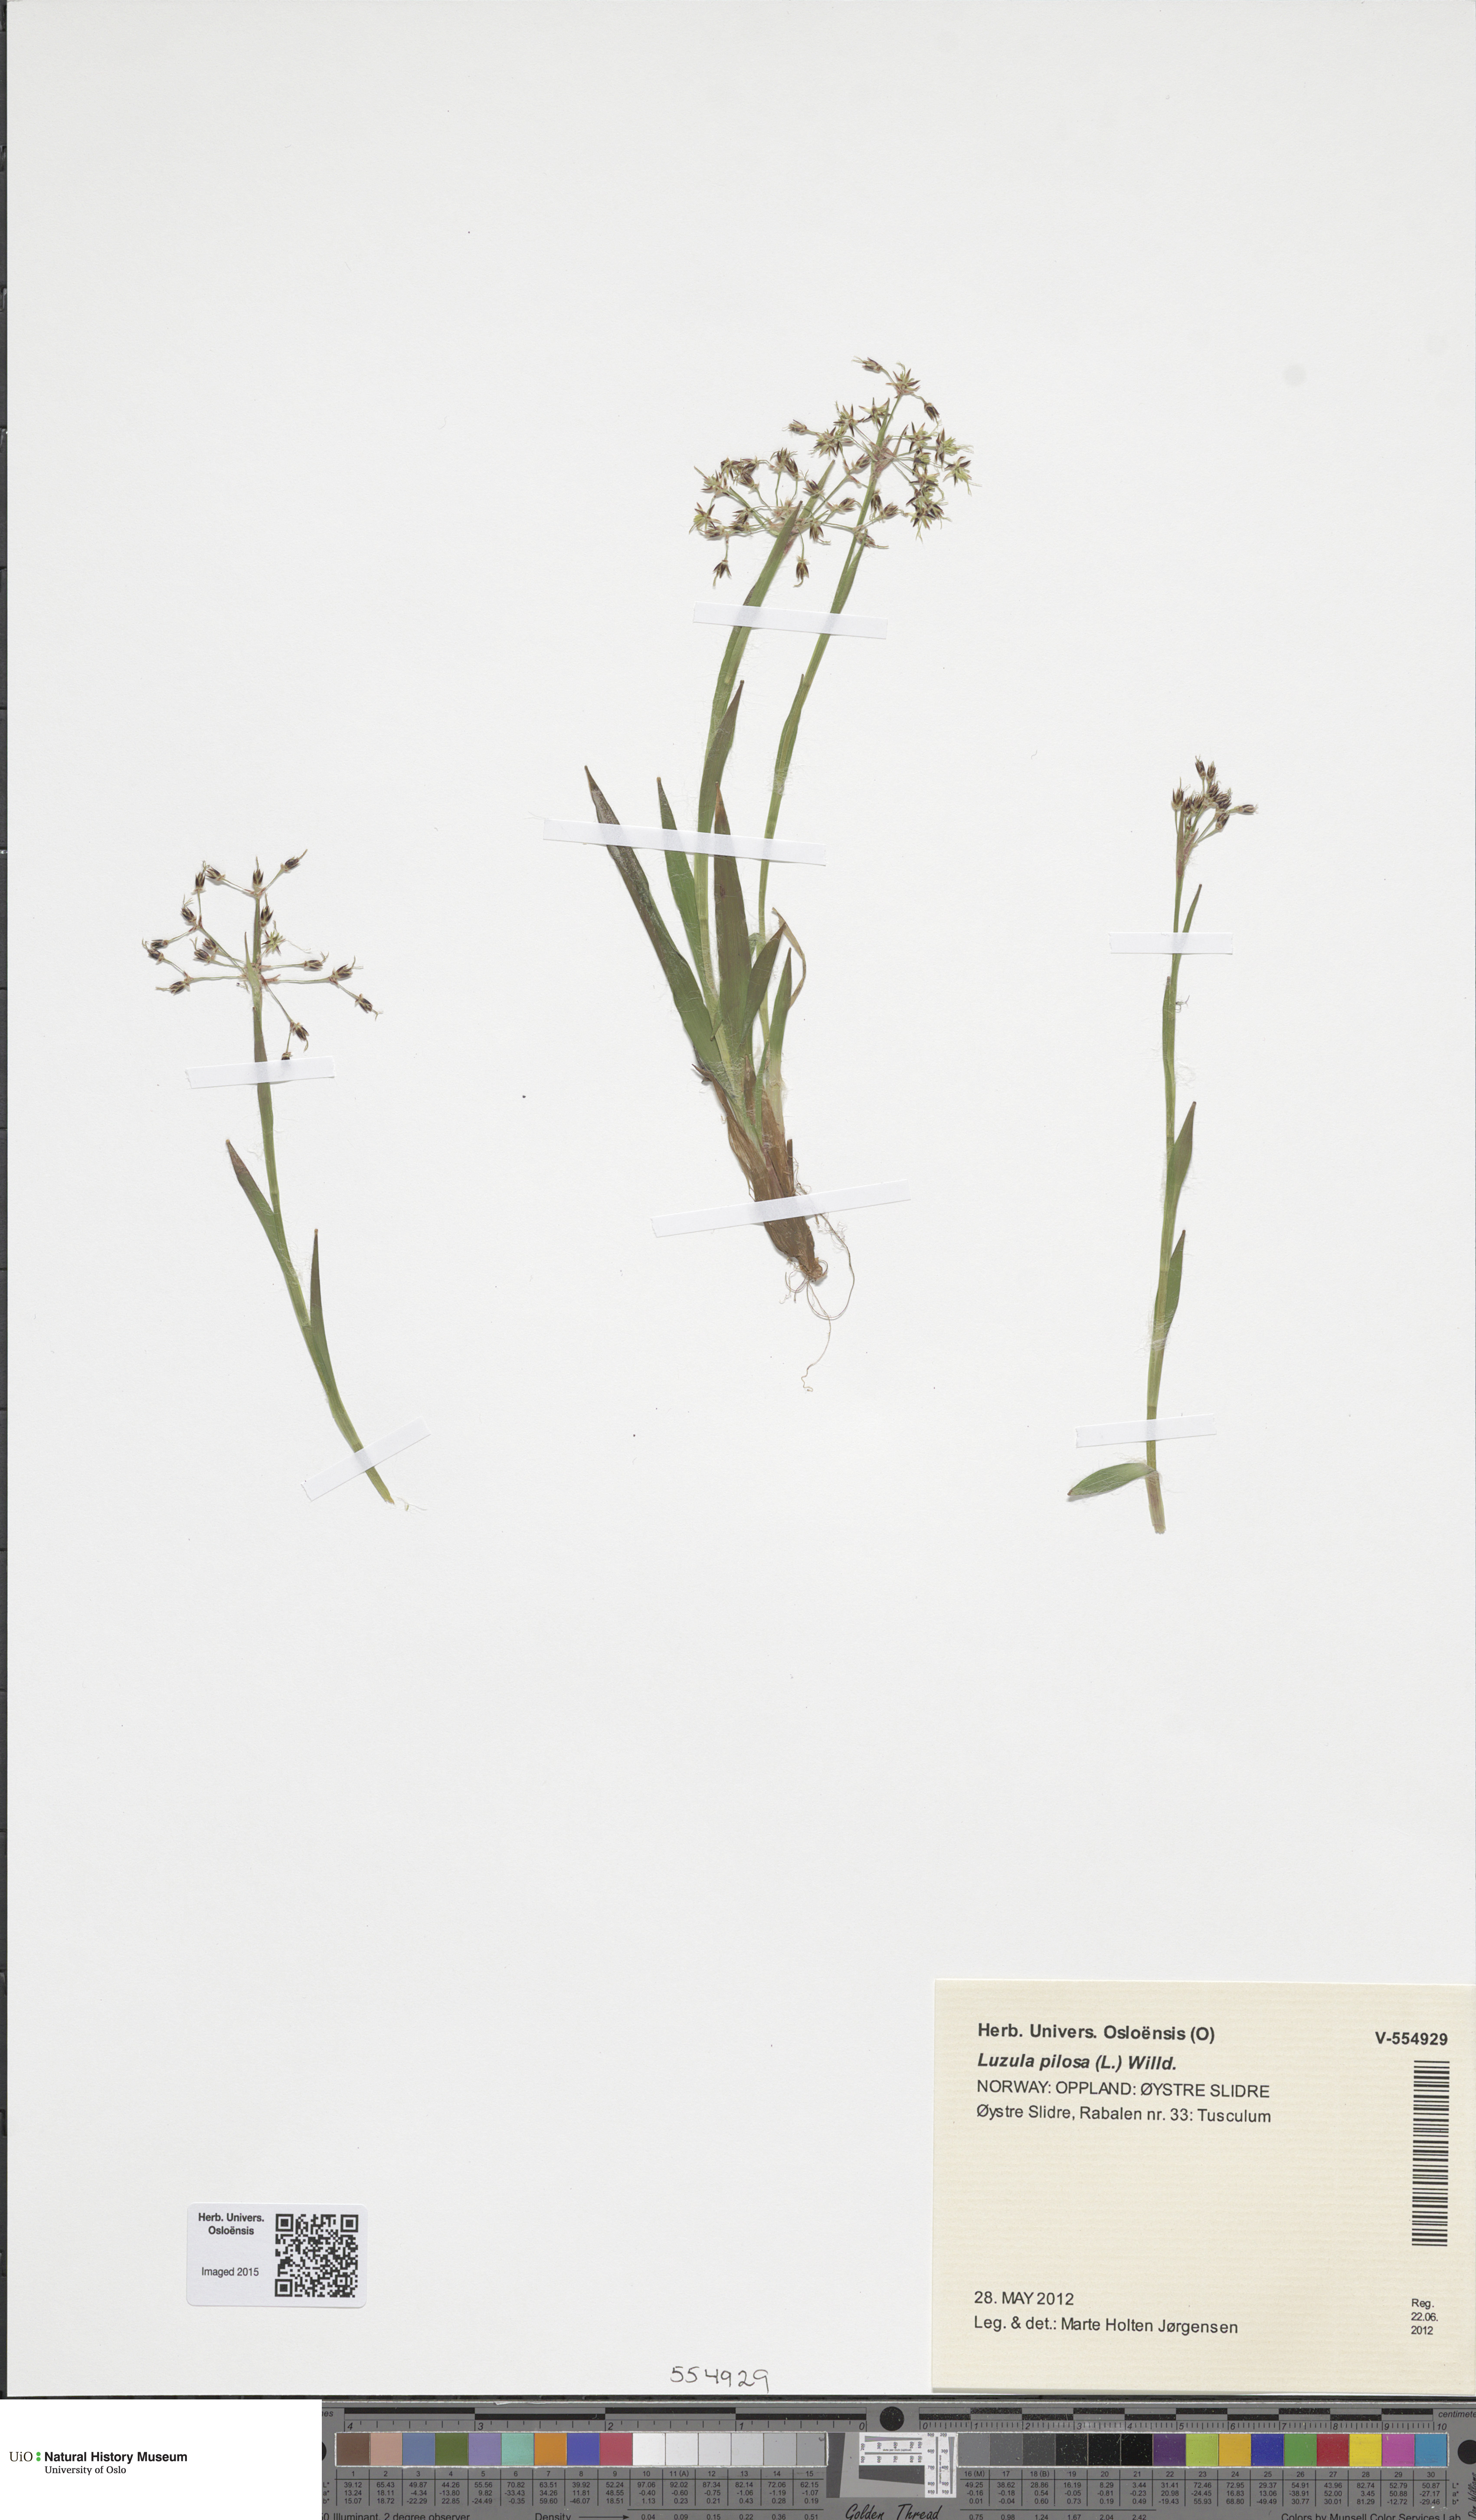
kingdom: Plantae
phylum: Tracheophyta
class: Liliopsida
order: Poales
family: Juncaceae
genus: Luzula
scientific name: Luzula pilosa
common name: Hairy wood-rush
